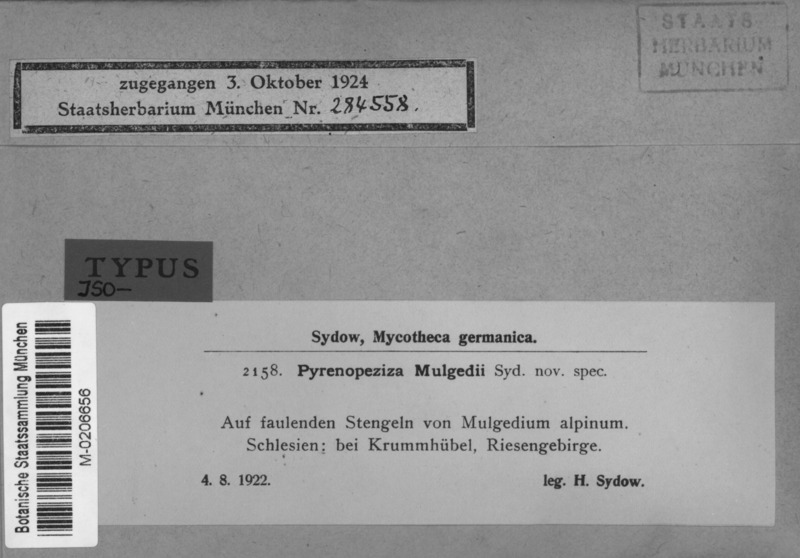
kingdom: Fungi
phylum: Ascomycota
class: Leotiomycetes
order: Helotiales
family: Ploettnerulaceae
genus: Pyrenopeziza
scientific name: Pyrenopeziza mulgedii
